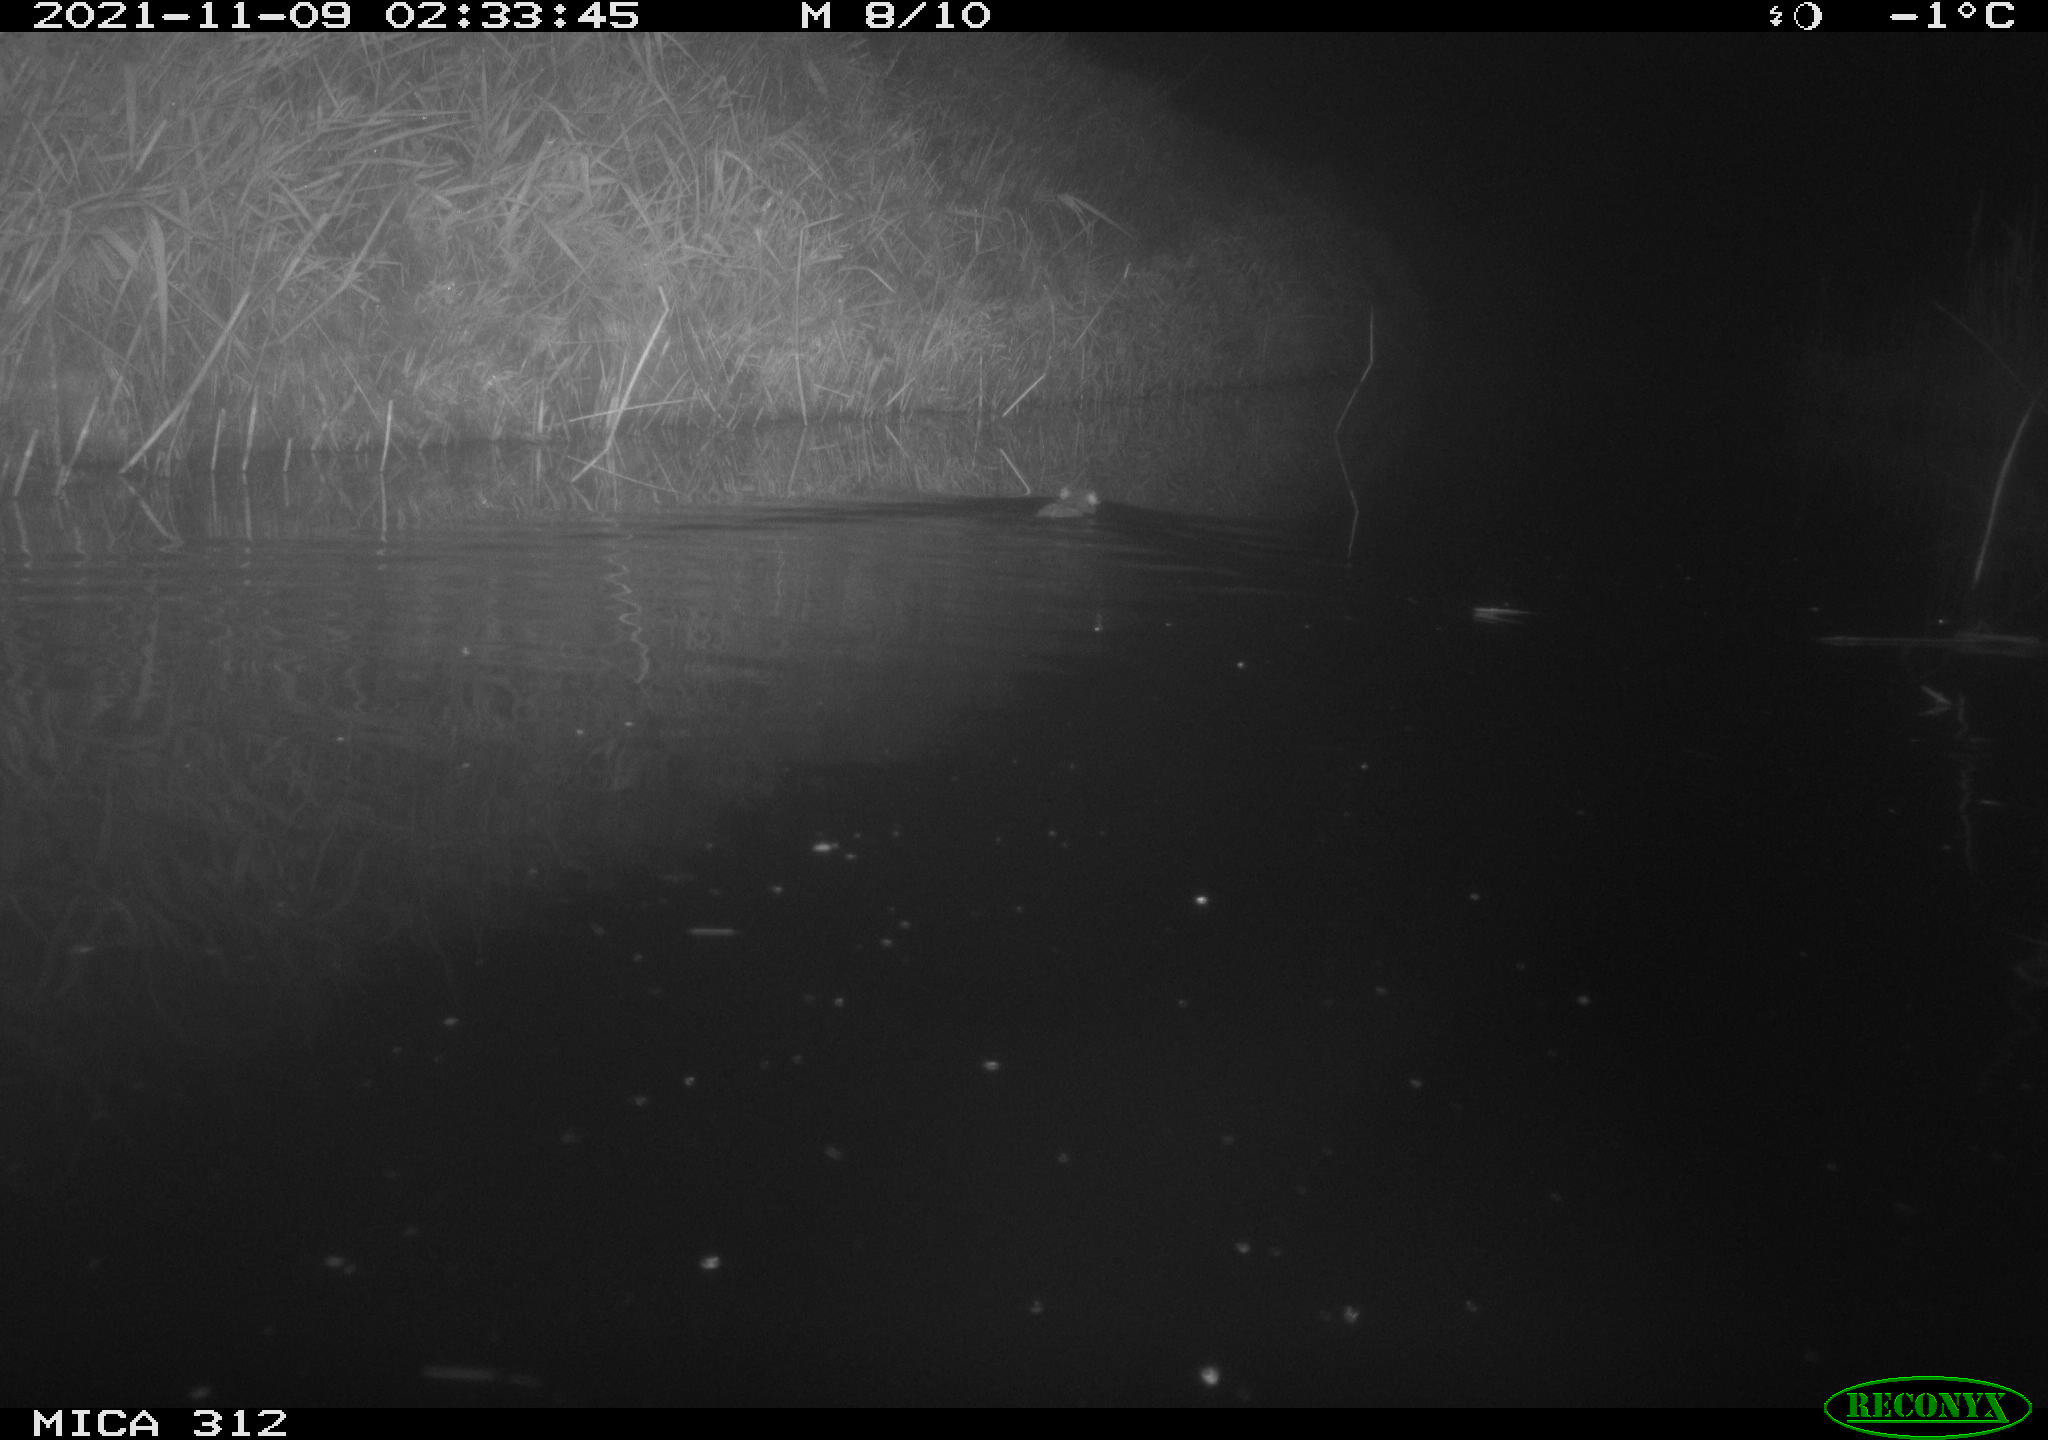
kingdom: Animalia
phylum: Chordata
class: Mammalia
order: Rodentia
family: Muridae
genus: Rattus
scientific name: Rattus norvegicus
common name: Brown rat
